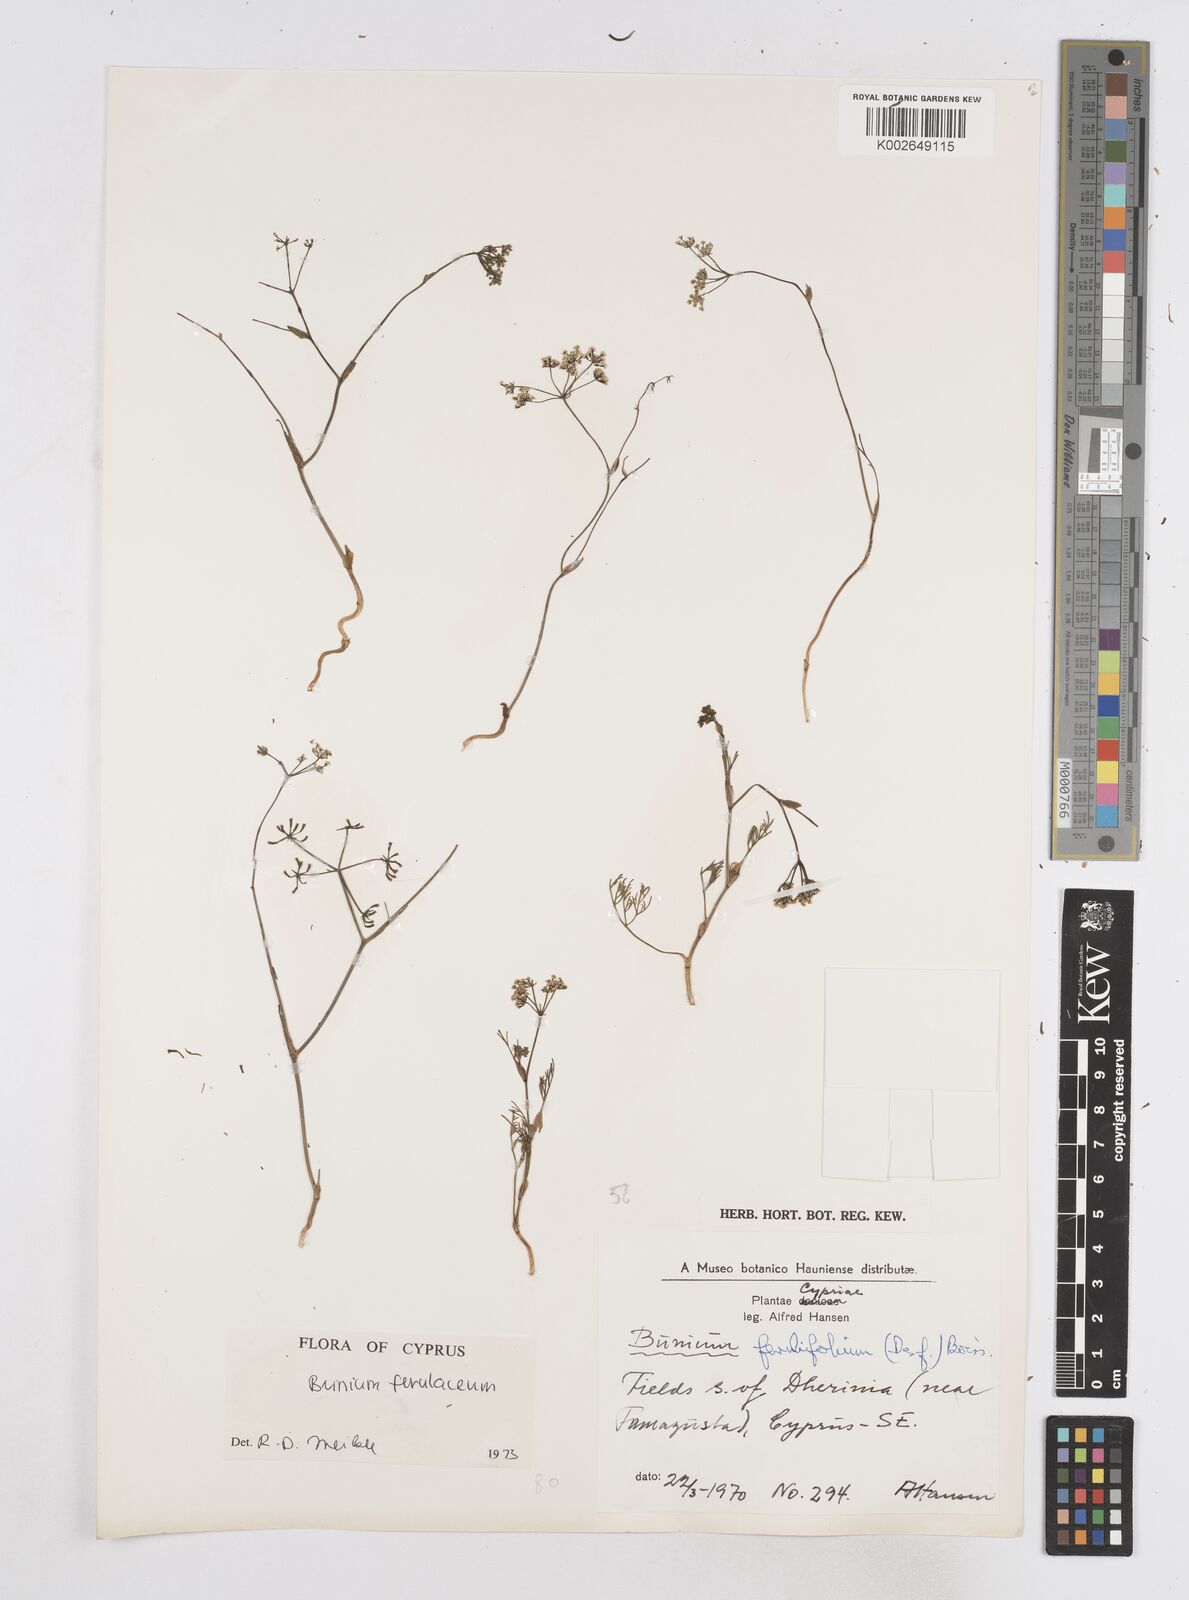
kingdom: Plantae
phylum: Tracheophyta
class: Magnoliopsida
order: Apiales
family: Apiaceae
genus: Bunium
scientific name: Bunium ferulaceum
